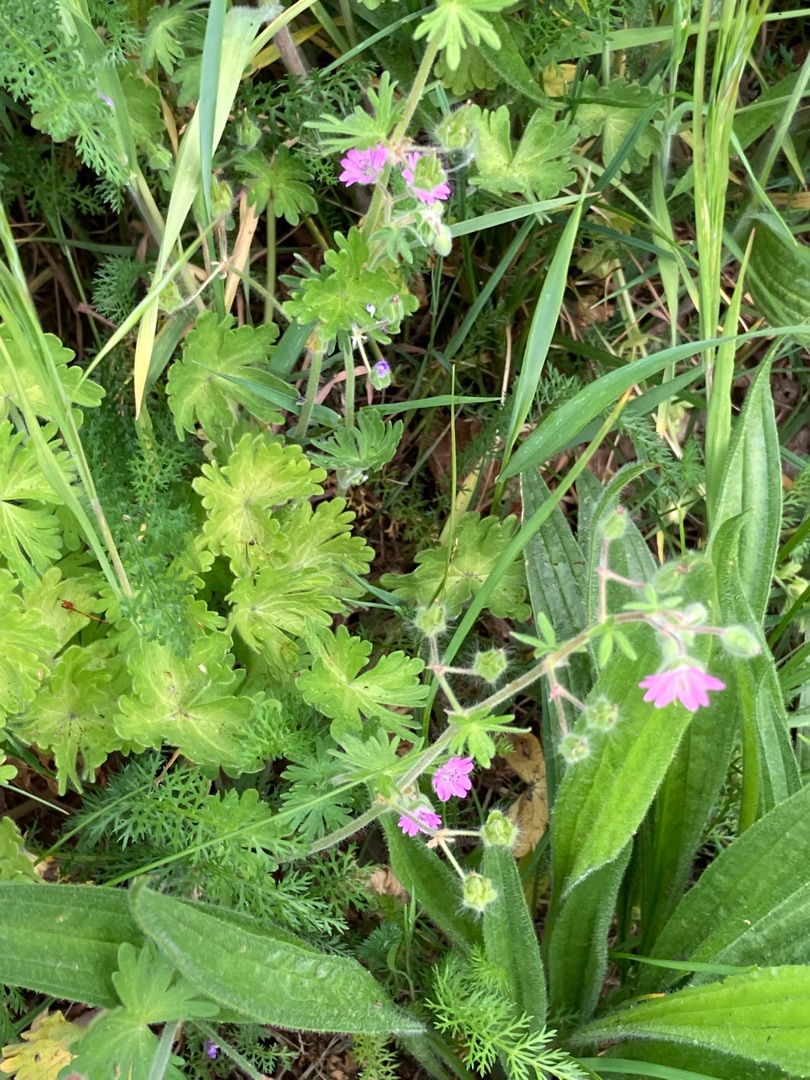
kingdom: Plantae
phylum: Tracheophyta
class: Magnoliopsida
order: Geraniales
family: Geraniaceae
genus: Geranium
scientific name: Geranium molle
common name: Blød storkenæb
